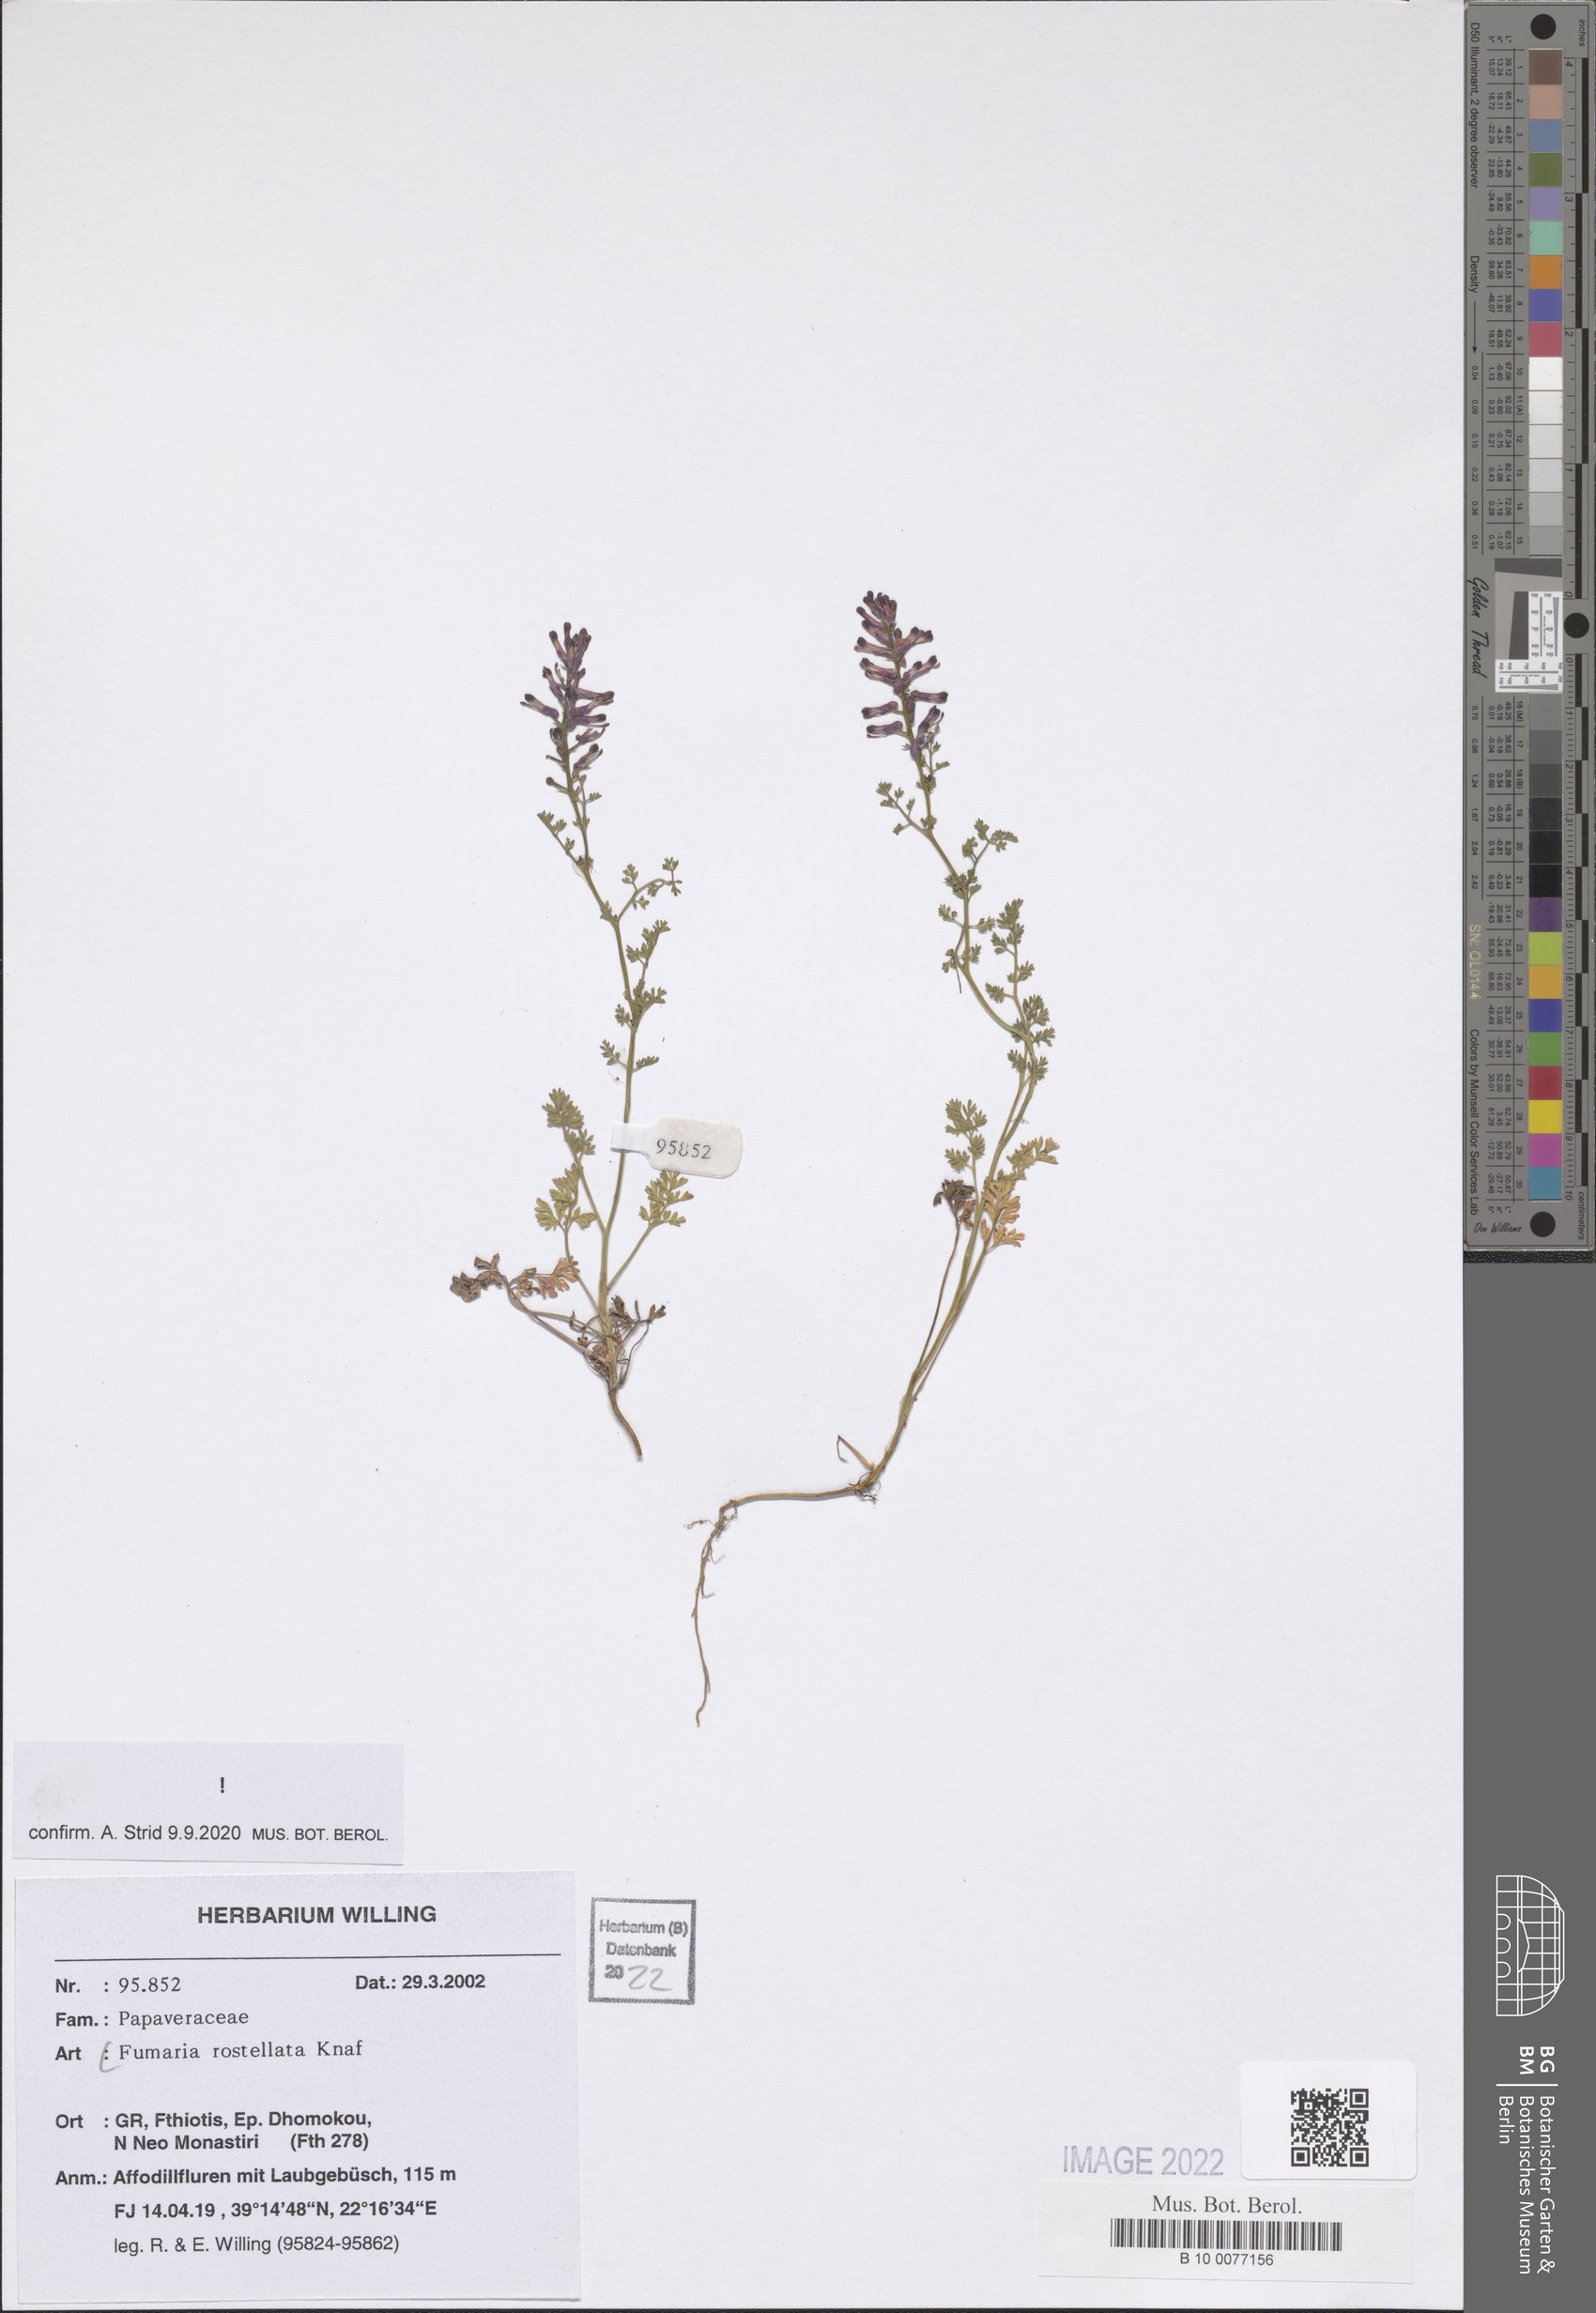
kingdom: Plantae
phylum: Tracheophyta
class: Magnoliopsida
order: Ranunculales
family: Papaveraceae
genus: Fumaria
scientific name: Fumaria rostellata
